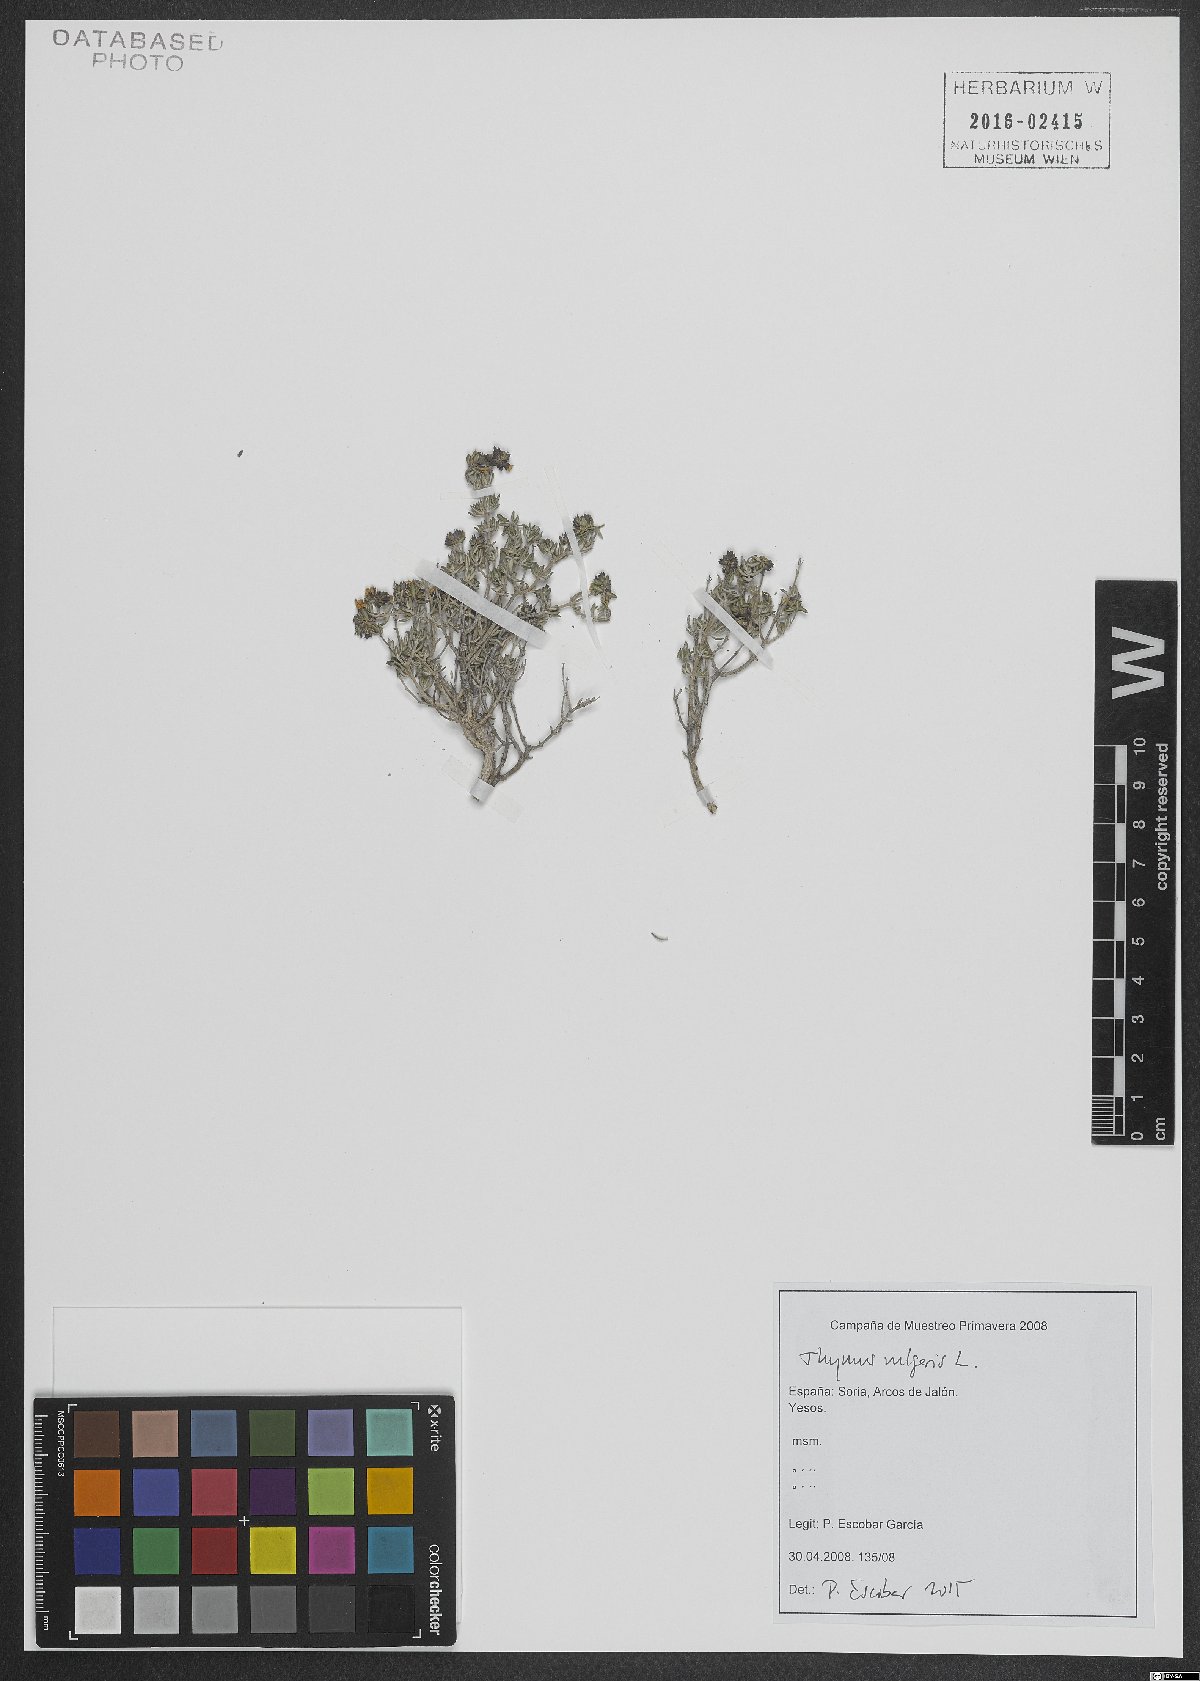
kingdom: Plantae
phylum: Tracheophyta
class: Magnoliopsida
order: Lamiales
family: Lamiaceae
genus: Thymus
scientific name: Thymus vulgaris
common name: Garden thyme
